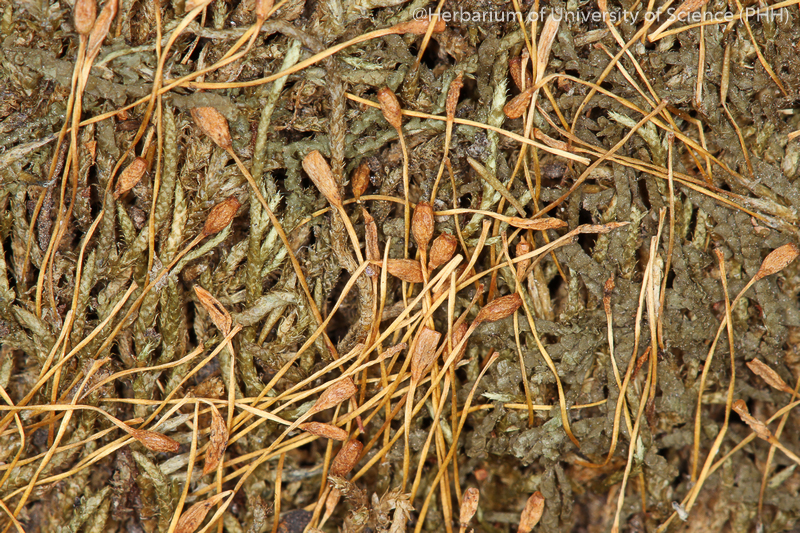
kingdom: Plantae
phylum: Bryophyta
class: Bryopsida
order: Hypnales
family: Entodontaceae
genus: Erythrodontium
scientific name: Erythrodontium julaceum
